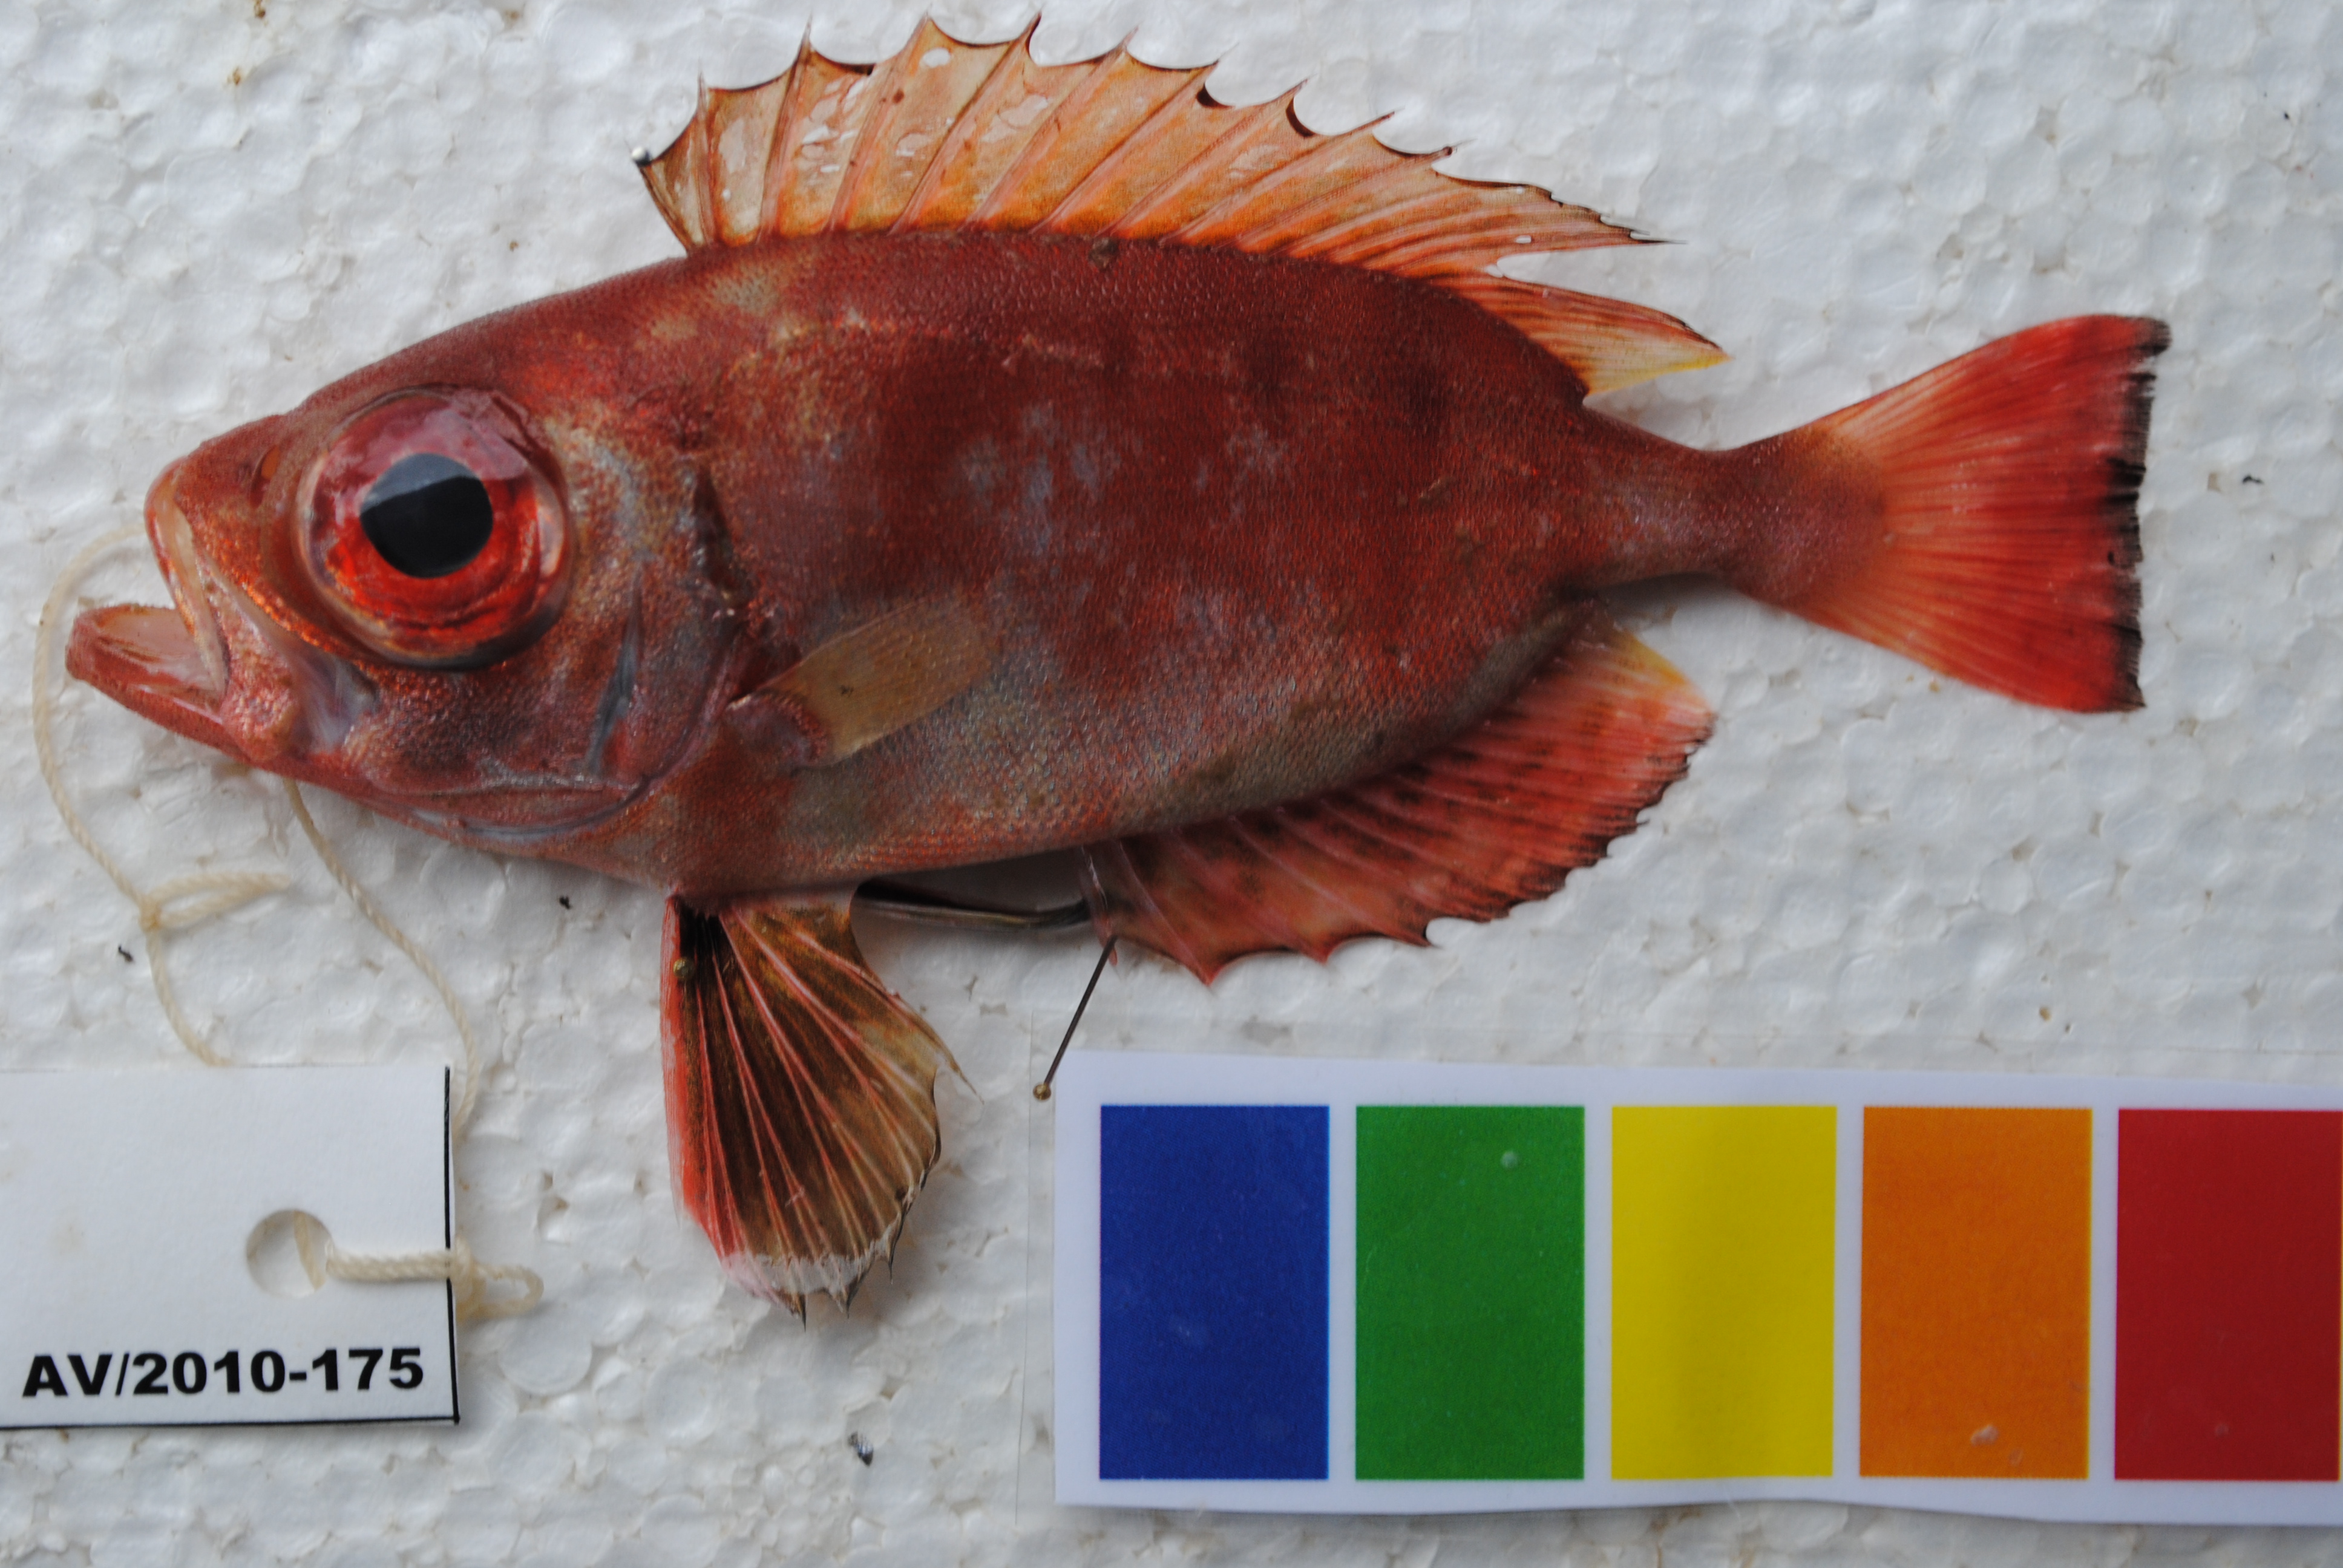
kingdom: Animalia
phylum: Chordata
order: Perciformes
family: Priacanthidae
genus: Priacanthus
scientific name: Priacanthus hamrur
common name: Moontail bullseye
